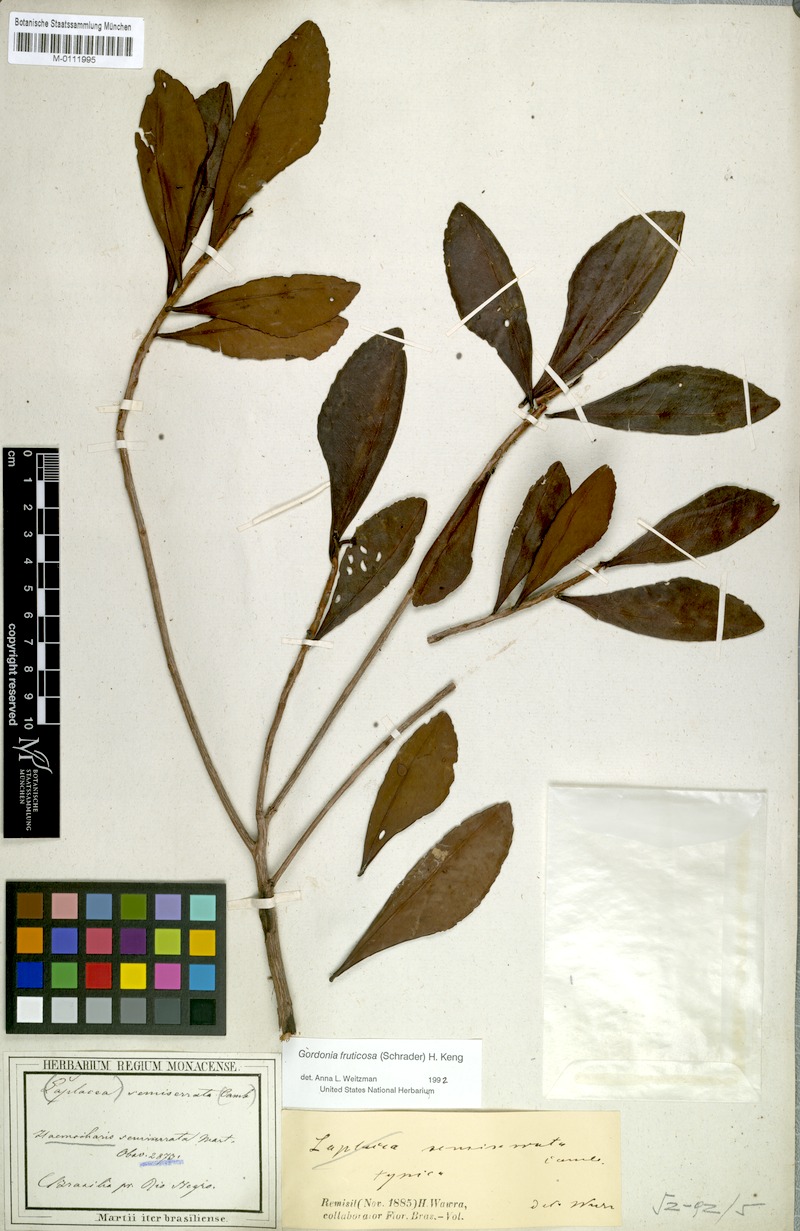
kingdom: Plantae
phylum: Tracheophyta
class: Magnoliopsida
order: Ericales
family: Theaceae
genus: Gordonia
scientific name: Gordonia fruticosa
